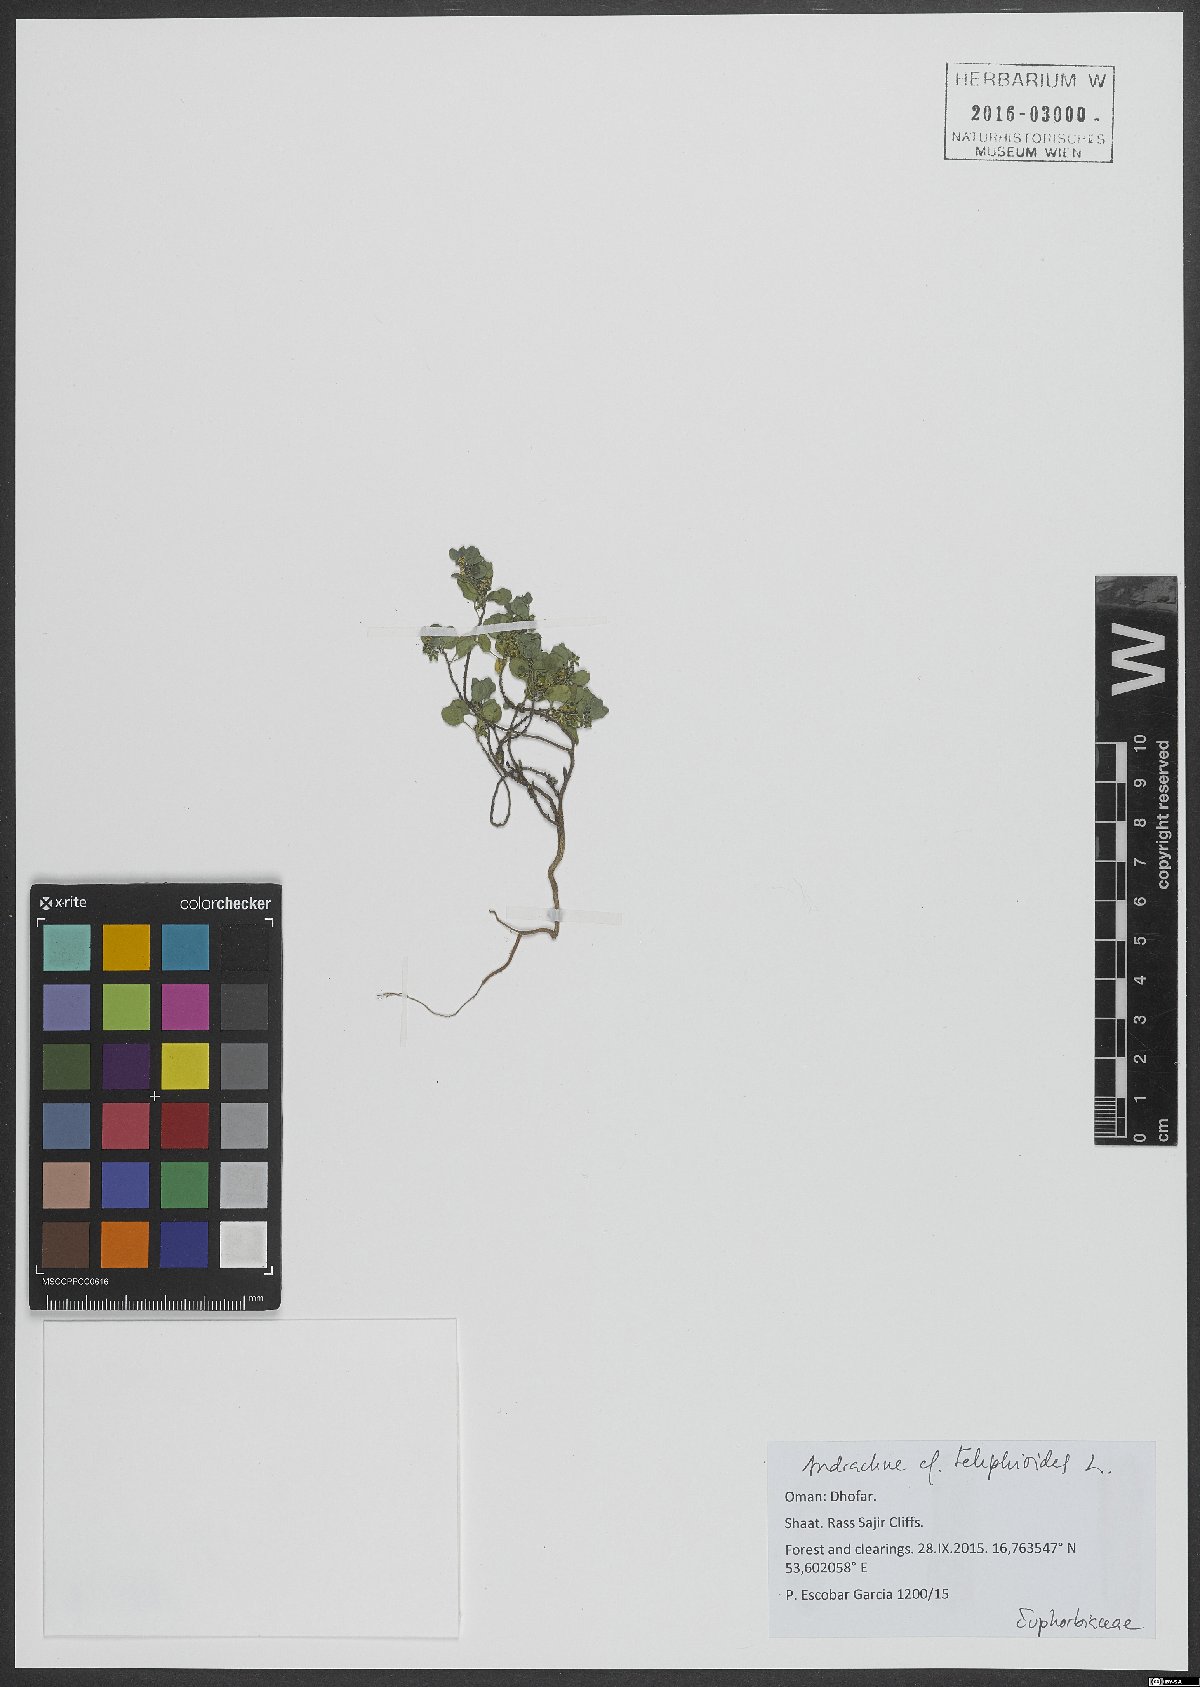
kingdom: Plantae
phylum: Tracheophyta
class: Magnoliopsida
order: Malpighiales
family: Phyllanthaceae
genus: Andrachne
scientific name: Andrachne telephioides
